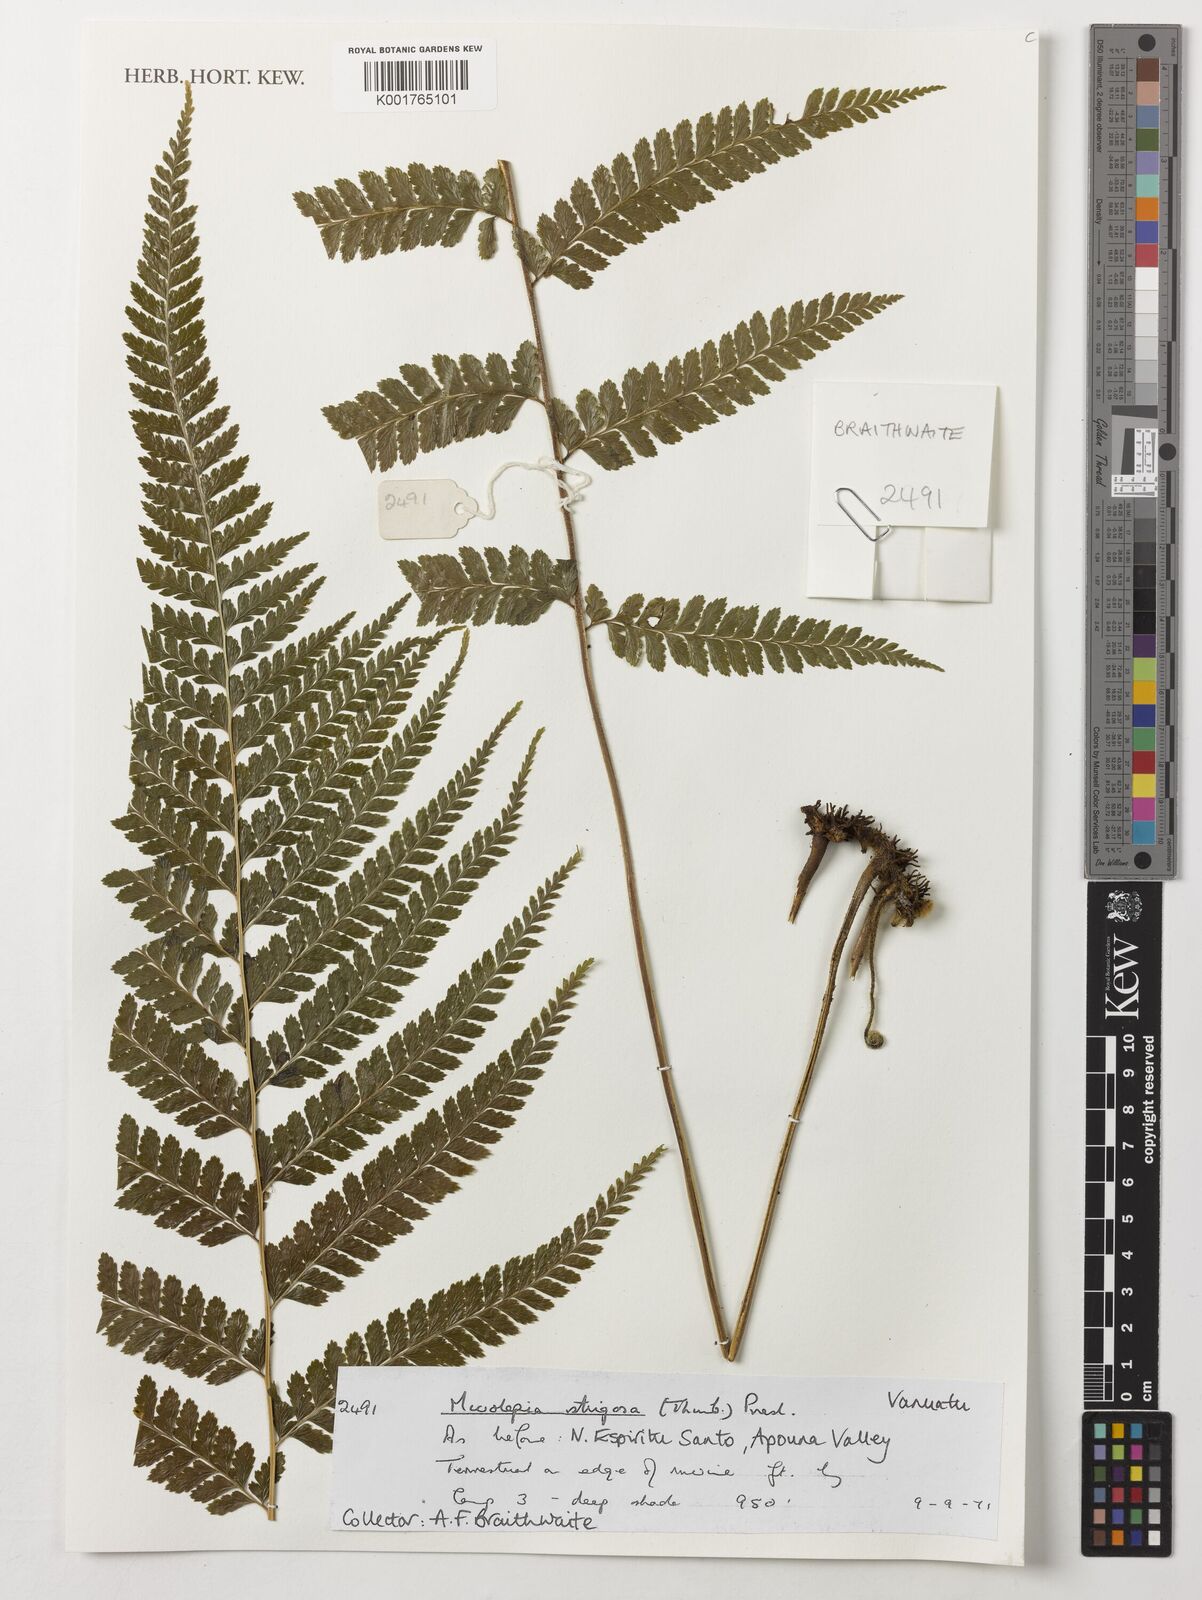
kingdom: Plantae
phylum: Tracheophyta
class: Polypodiopsida
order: Polypodiales
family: Dennstaedtiaceae
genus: Microlepia
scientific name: Microlepia strigosa
